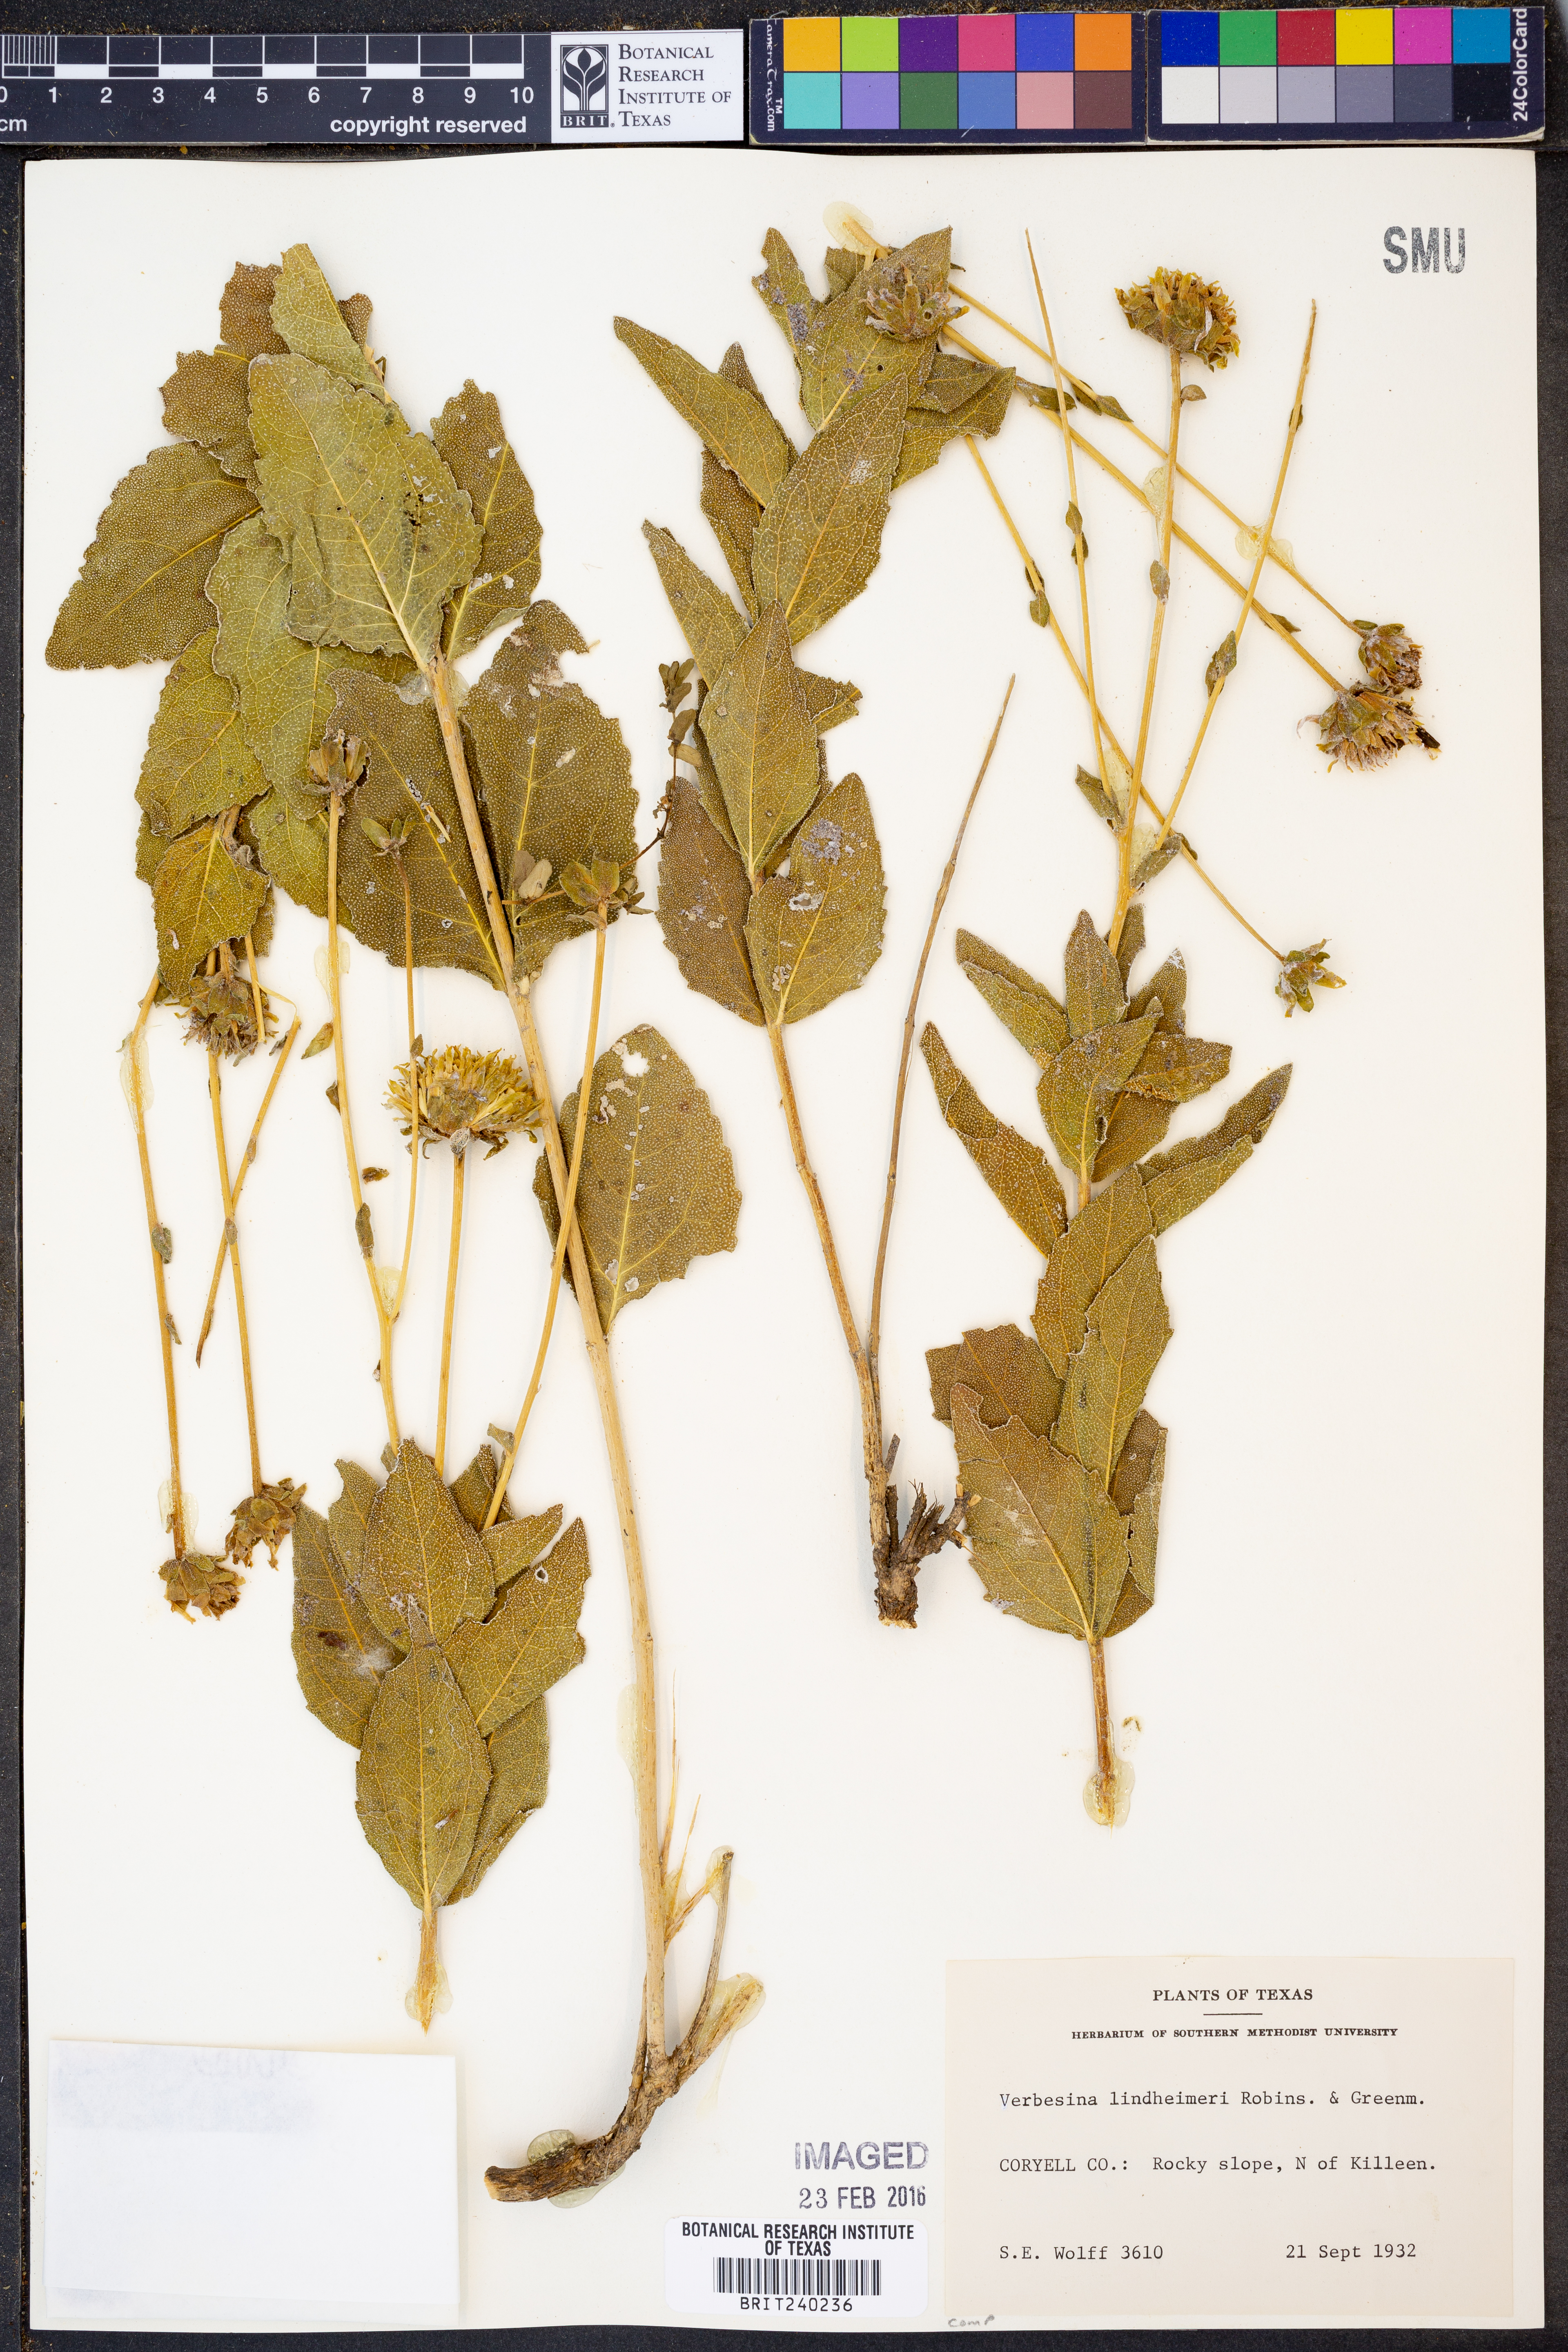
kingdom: Plantae
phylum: Tracheophyta
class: Magnoliopsida
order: Asterales
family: Asteraceae
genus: Verbesina
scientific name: Verbesina lindheimeri
